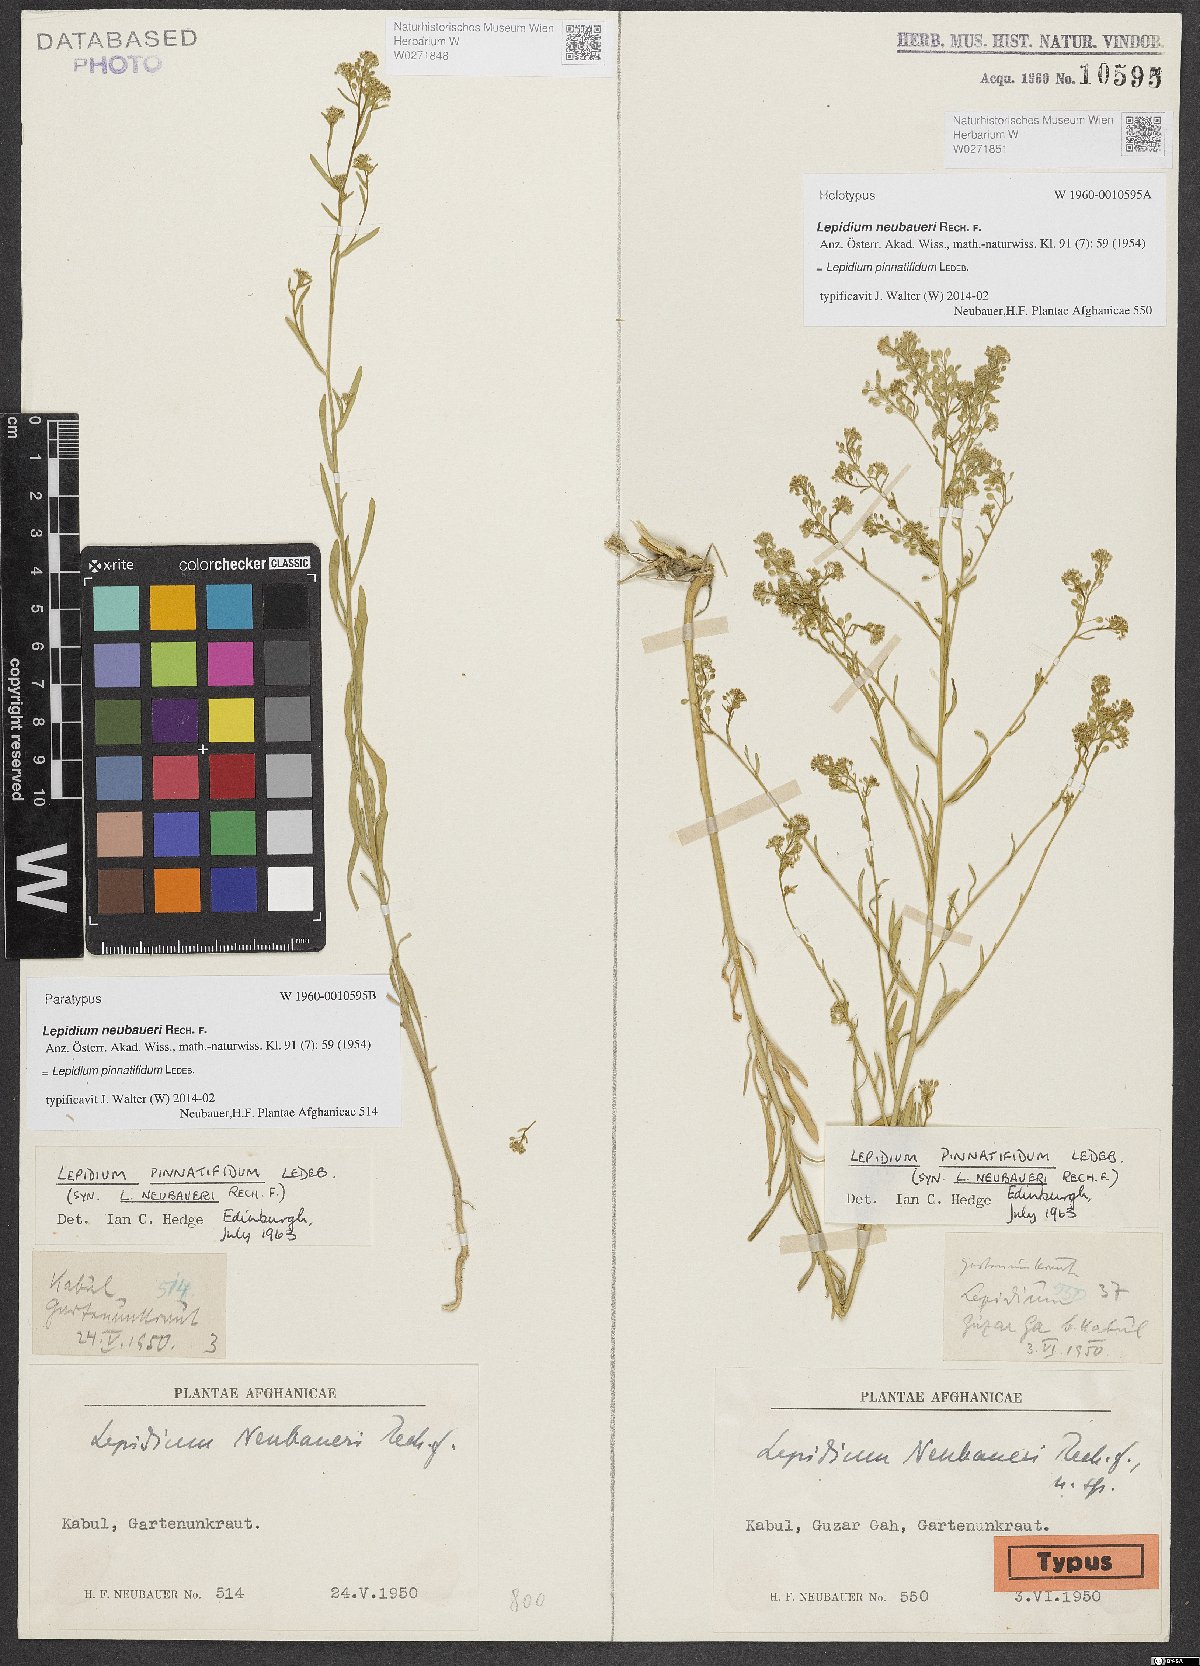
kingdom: Plantae
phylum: Tracheophyta
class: Magnoliopsida
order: Brassicales
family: Brassicaceae
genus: Lepidium
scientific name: Lepidium pinnatifidum
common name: Featherleaf pepperweed
